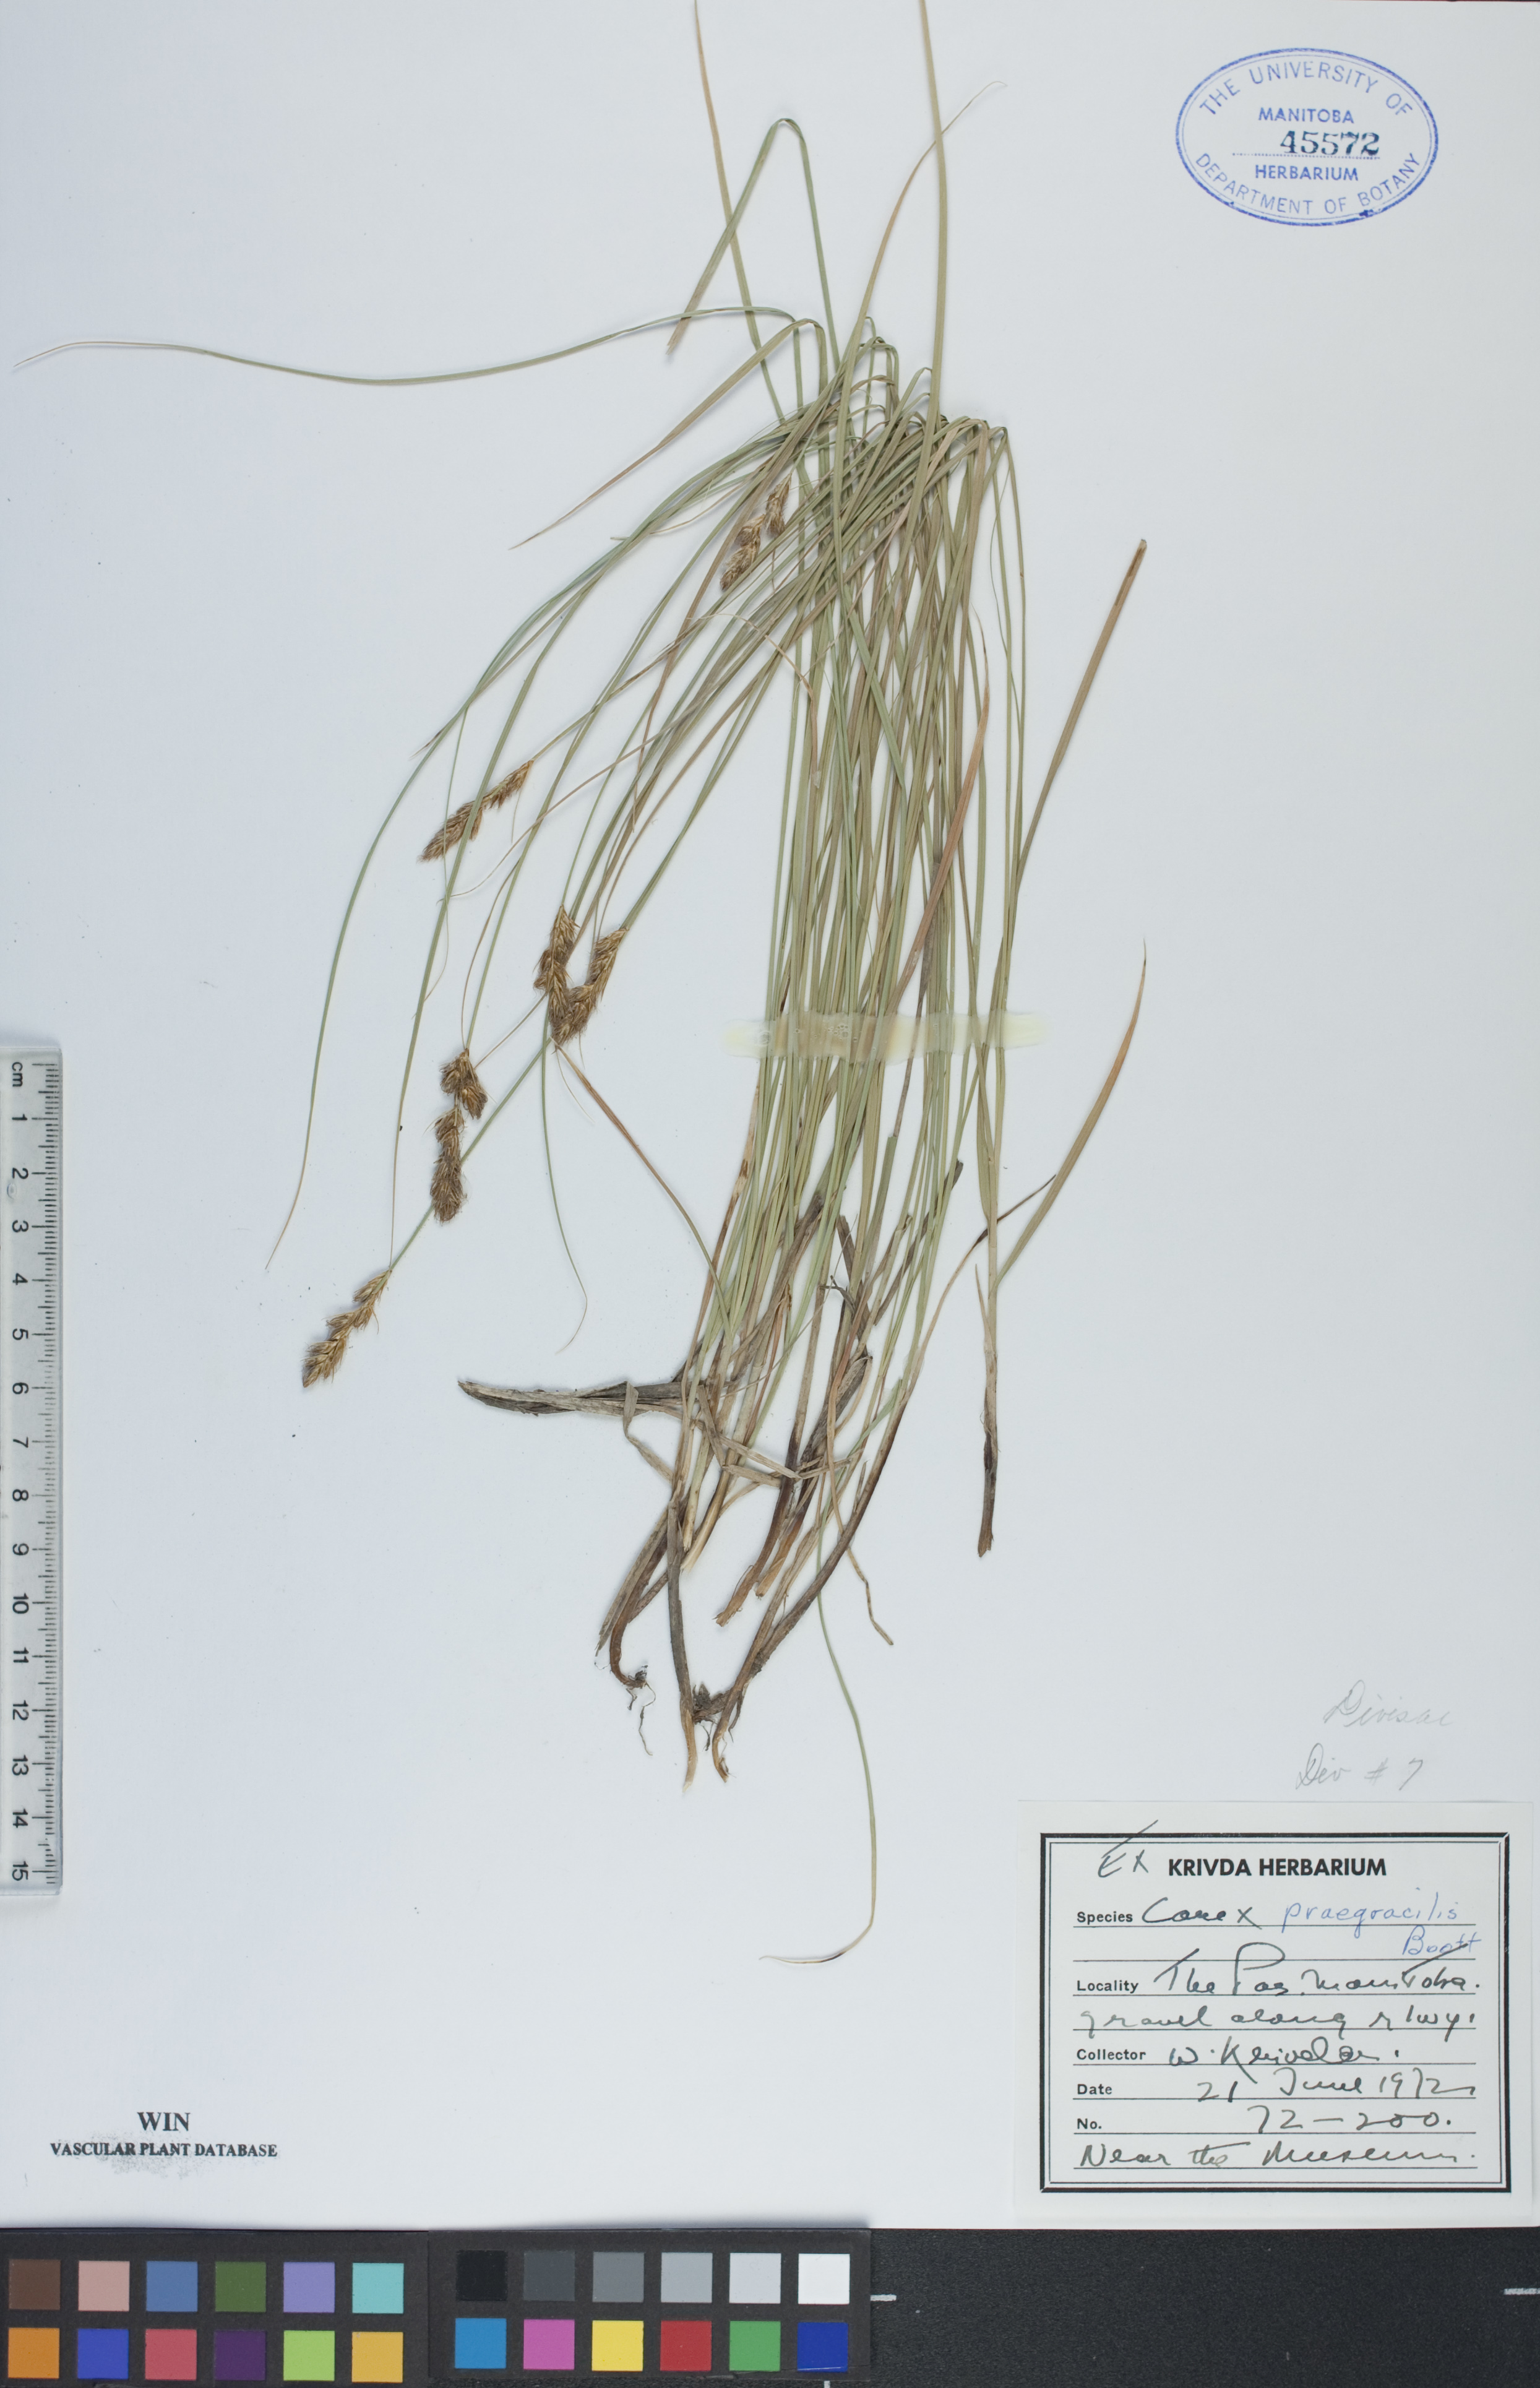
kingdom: Plantae
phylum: Tracheophyta
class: Liliopsida
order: Poales
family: Cyperaceae
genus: Carex
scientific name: Carex praegracilis
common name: Black creeper sedge
